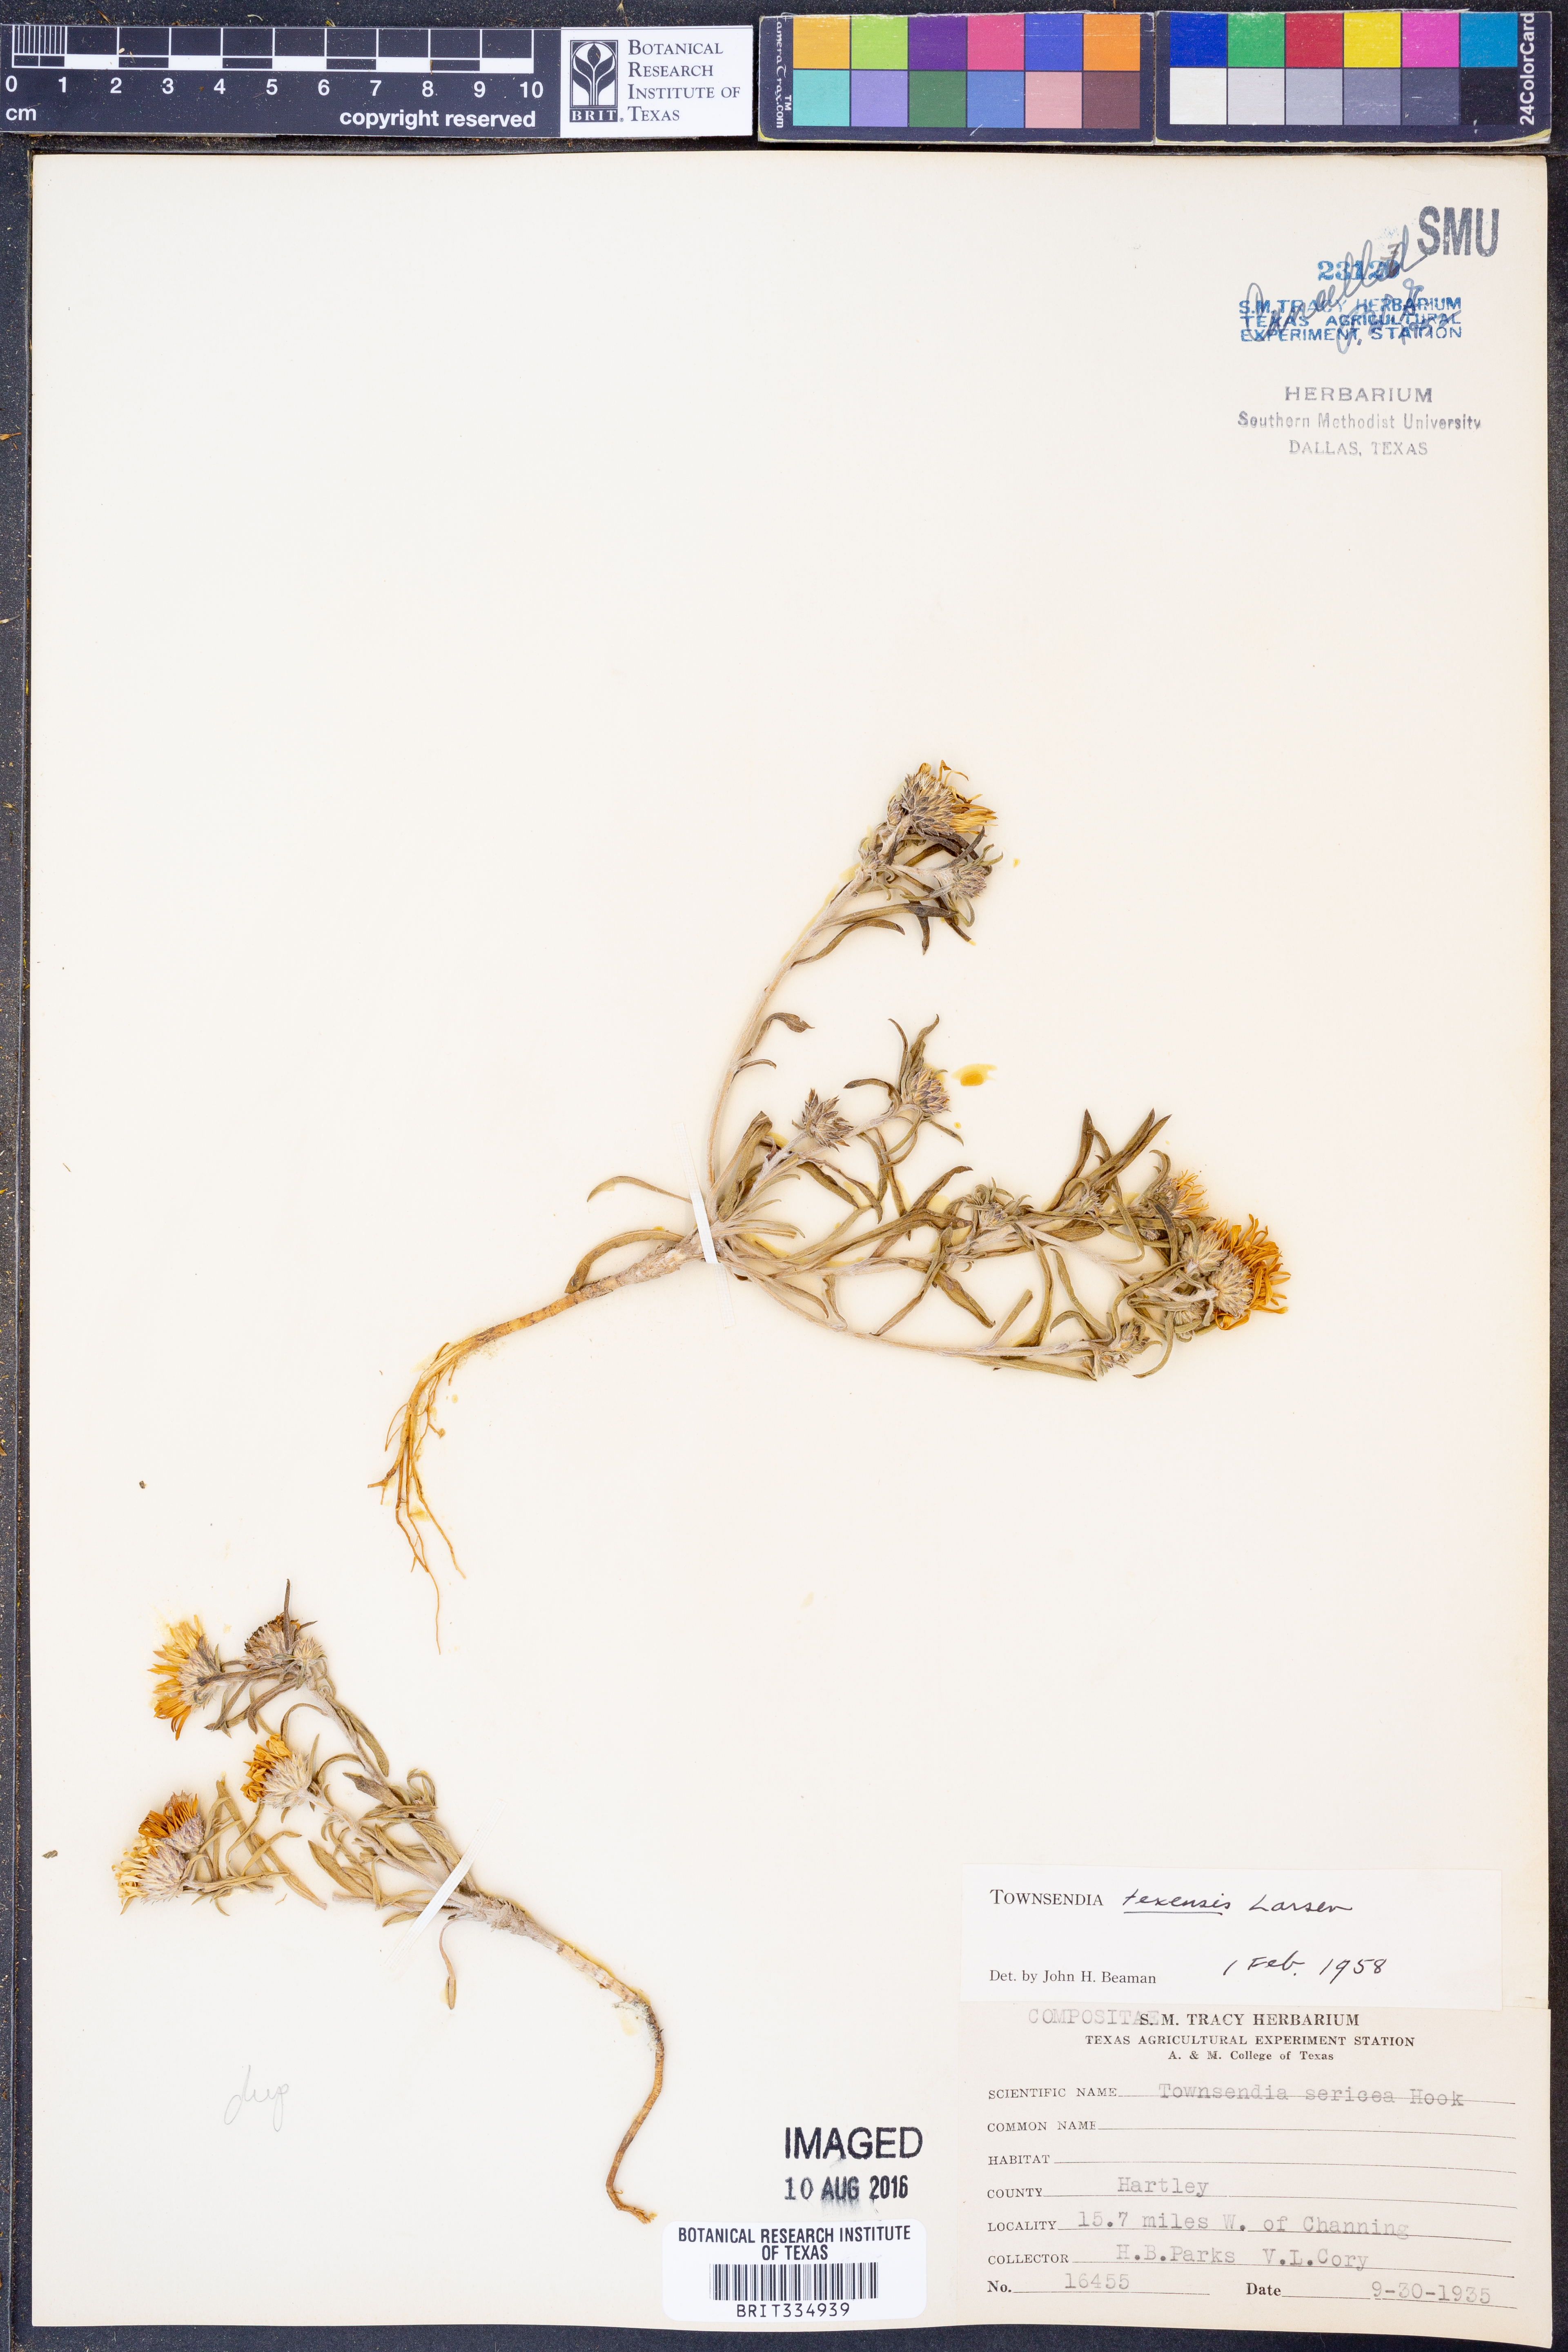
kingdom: Plantae
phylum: Tracheophyta
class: Magnoliopsida
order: Asterales
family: Asteraceae
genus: Townsendia
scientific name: Townsendia texensis
